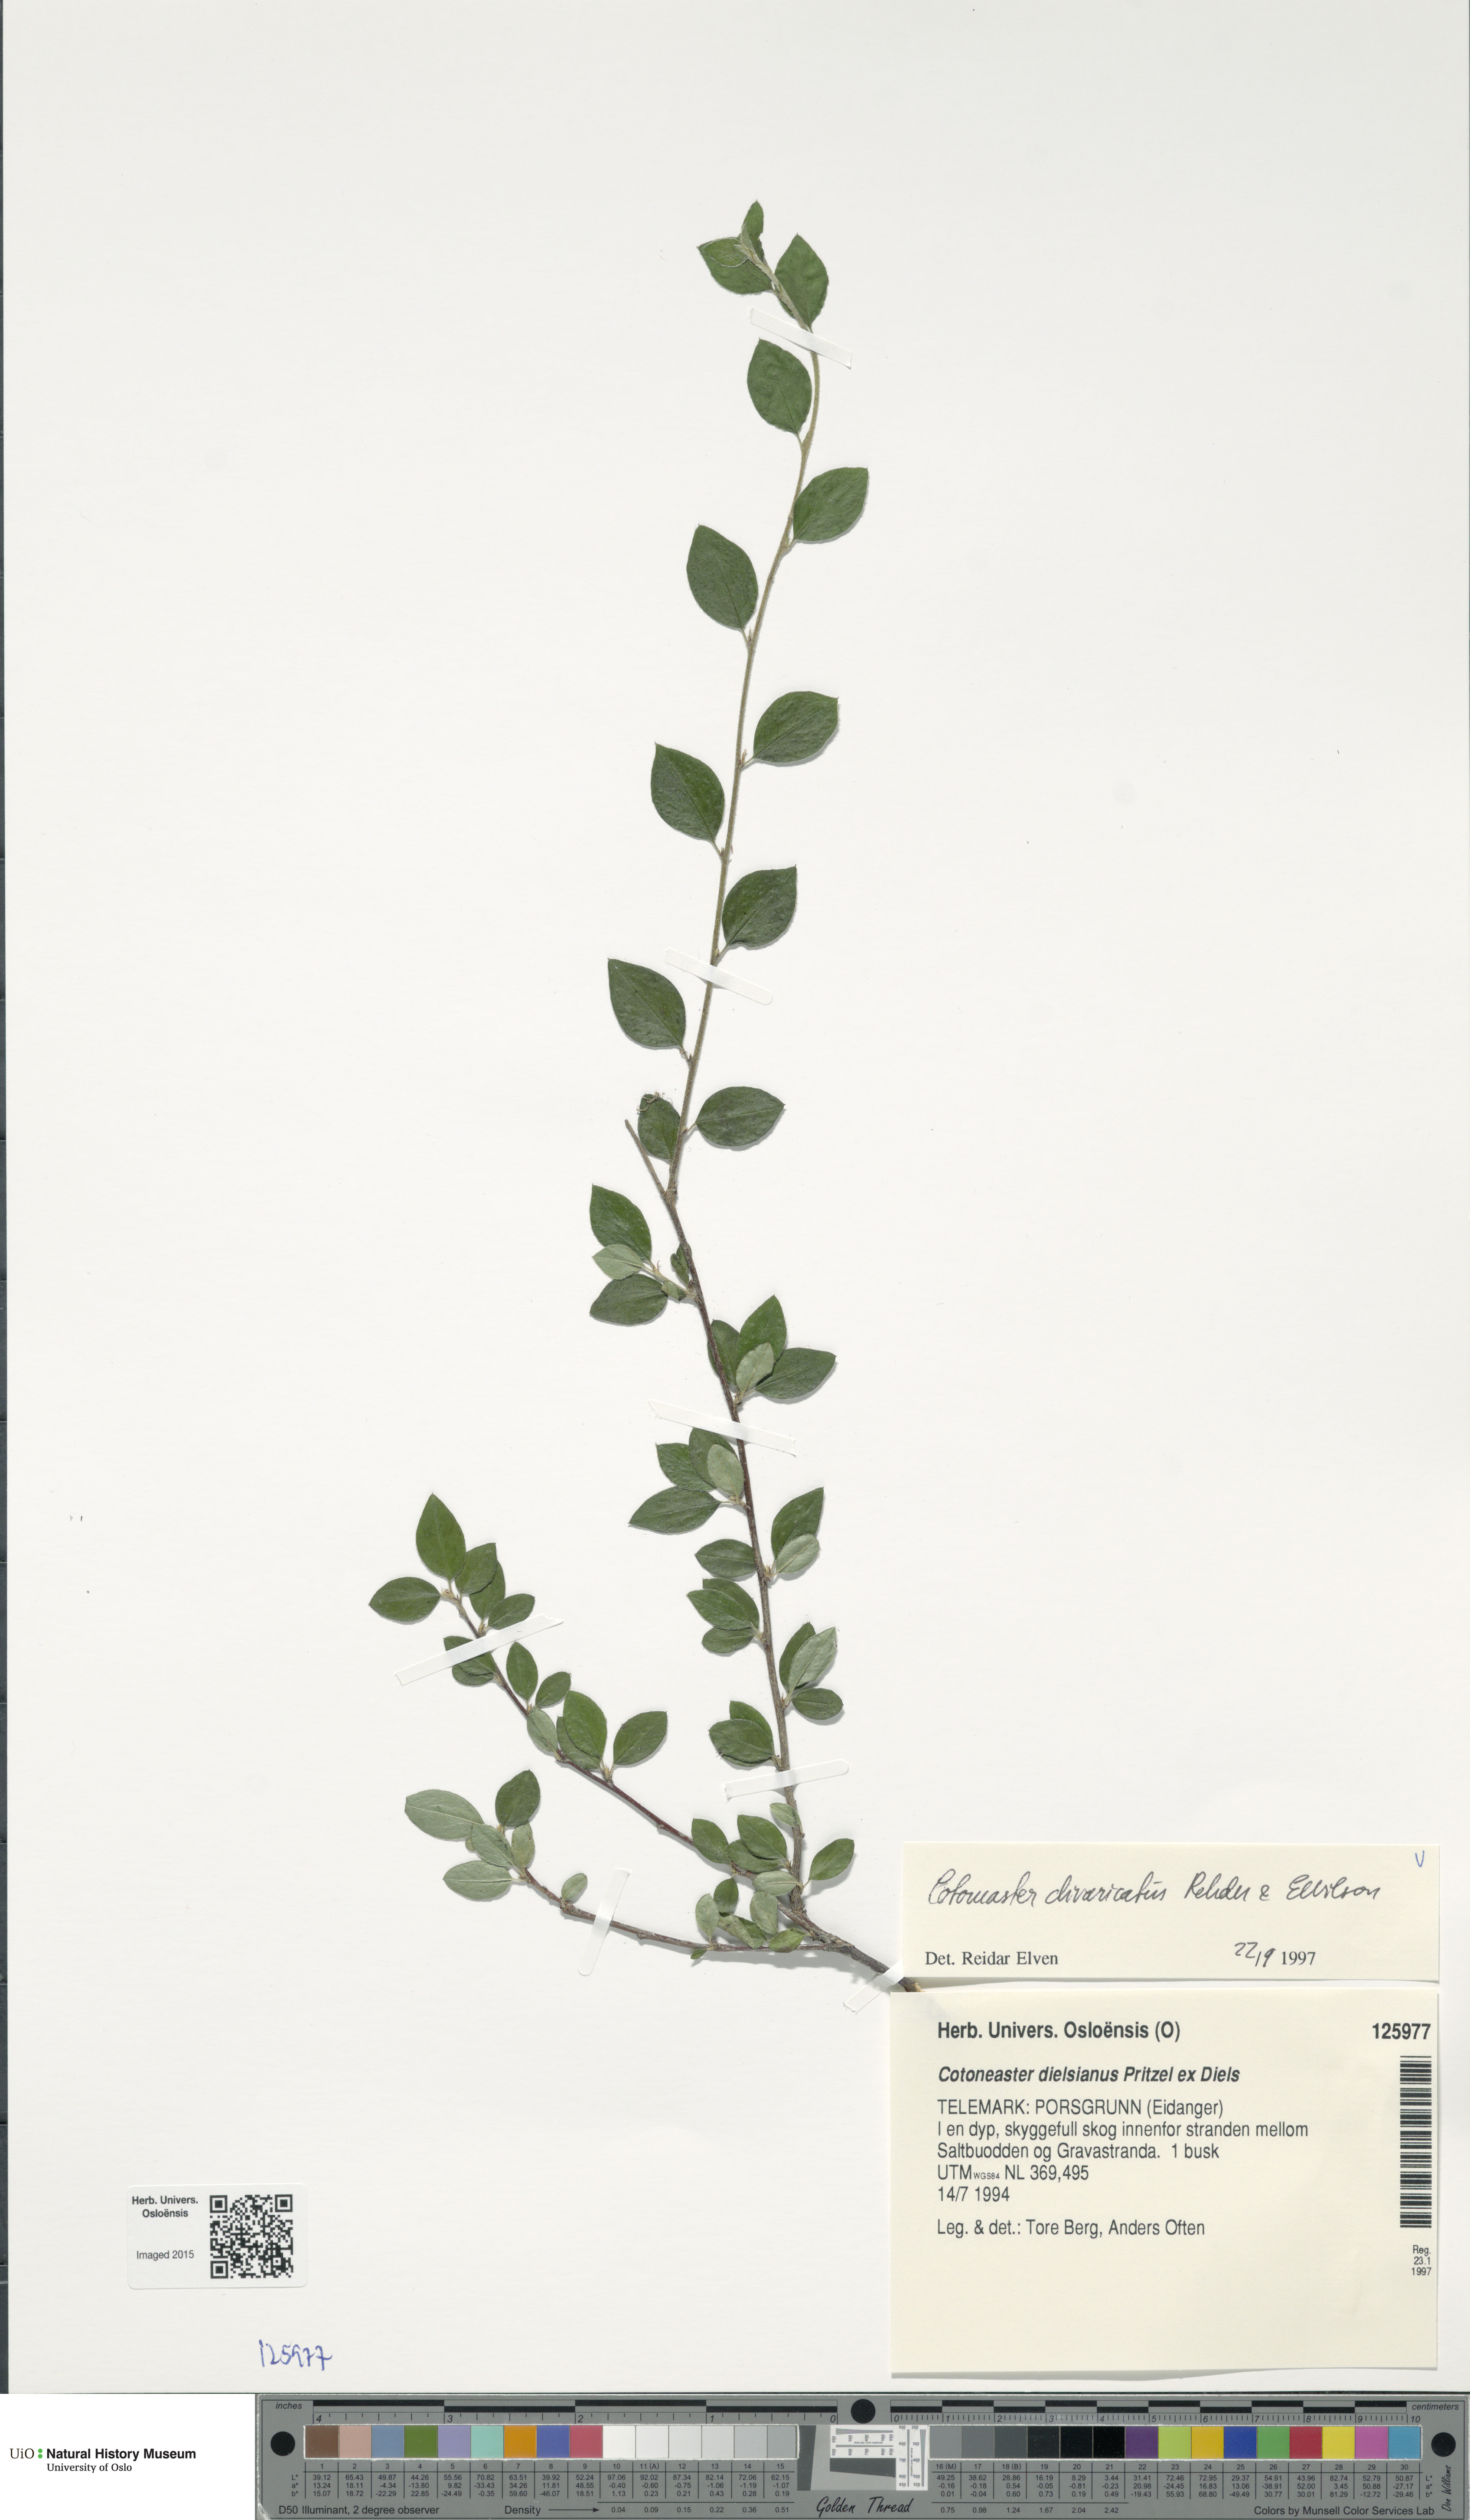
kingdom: Plantae
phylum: Tracheophyta
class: Magnoliopsida
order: Rosales
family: Rosaceae
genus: Cotoneaster
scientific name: Cotoneaster divaricatus
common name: Spreading cotoneaster
